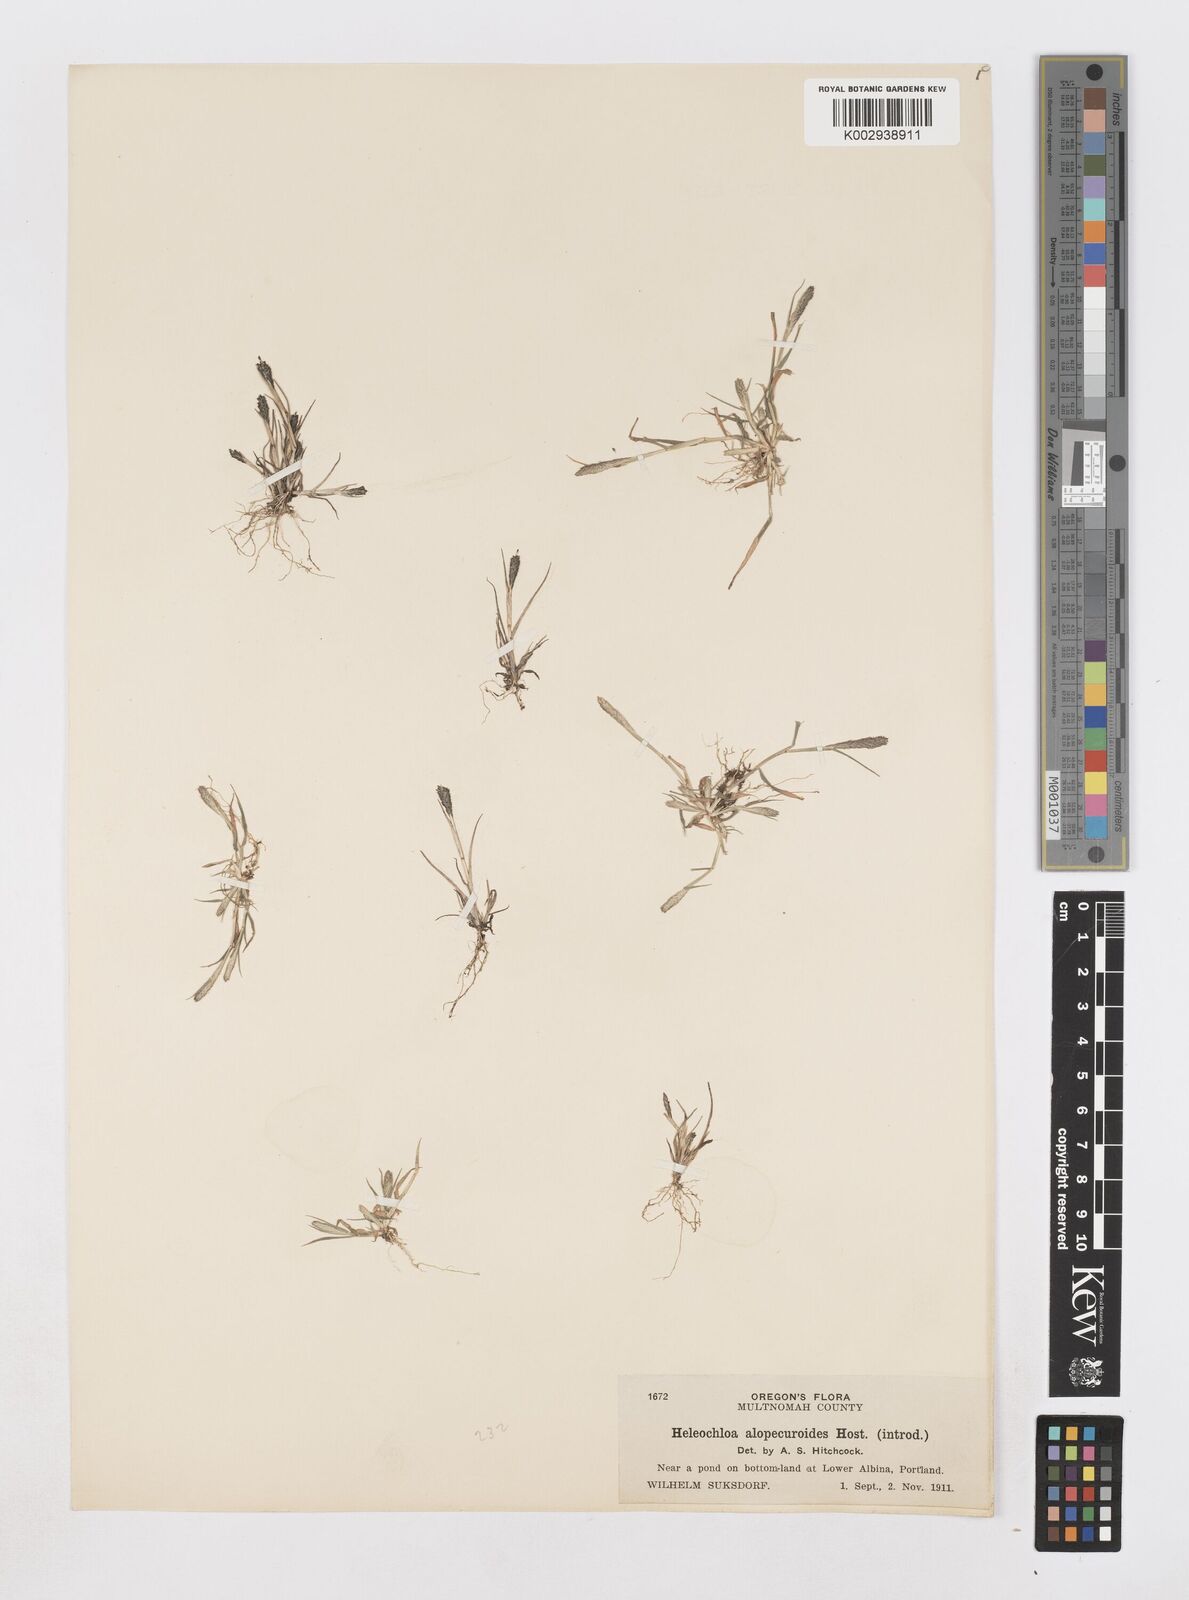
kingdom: Animalia
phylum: Arthropoda
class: Insecta
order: Coleoptera
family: Tenebrionidae
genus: Crypsis
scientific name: Crypsis
